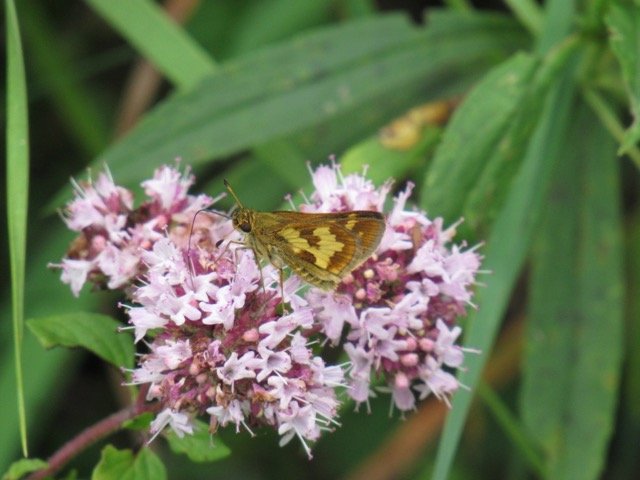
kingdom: Animalia
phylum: Arthropoda
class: Insecta
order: Lepidoptera
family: Hesperiidae
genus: Polites
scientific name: Polites coras
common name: Peck's Skipper
